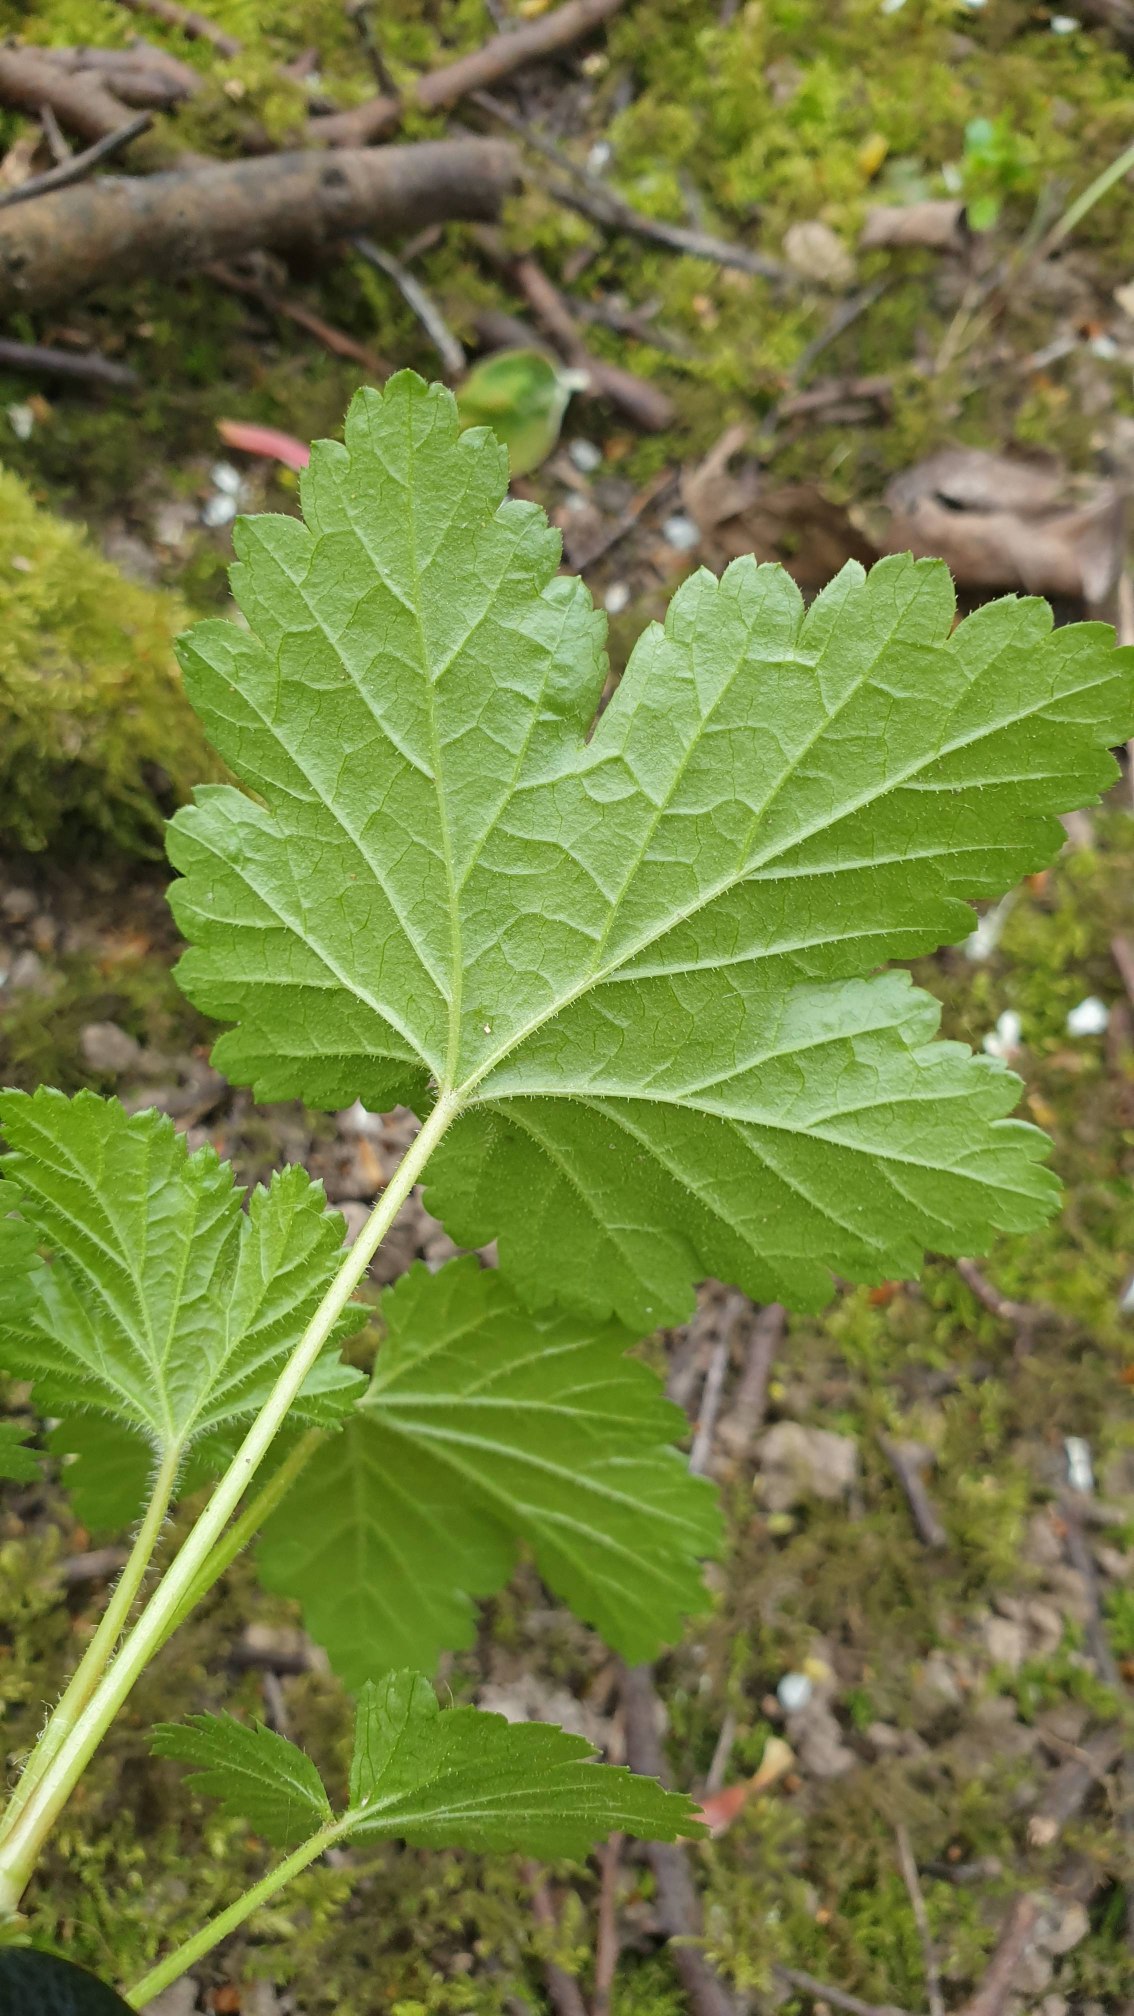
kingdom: Plantae
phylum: Tracheophyta
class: Magnoliopsida
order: Saxifragales
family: Grossulariaceae
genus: Ribes
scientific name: Ribes
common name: Ribsslægten
